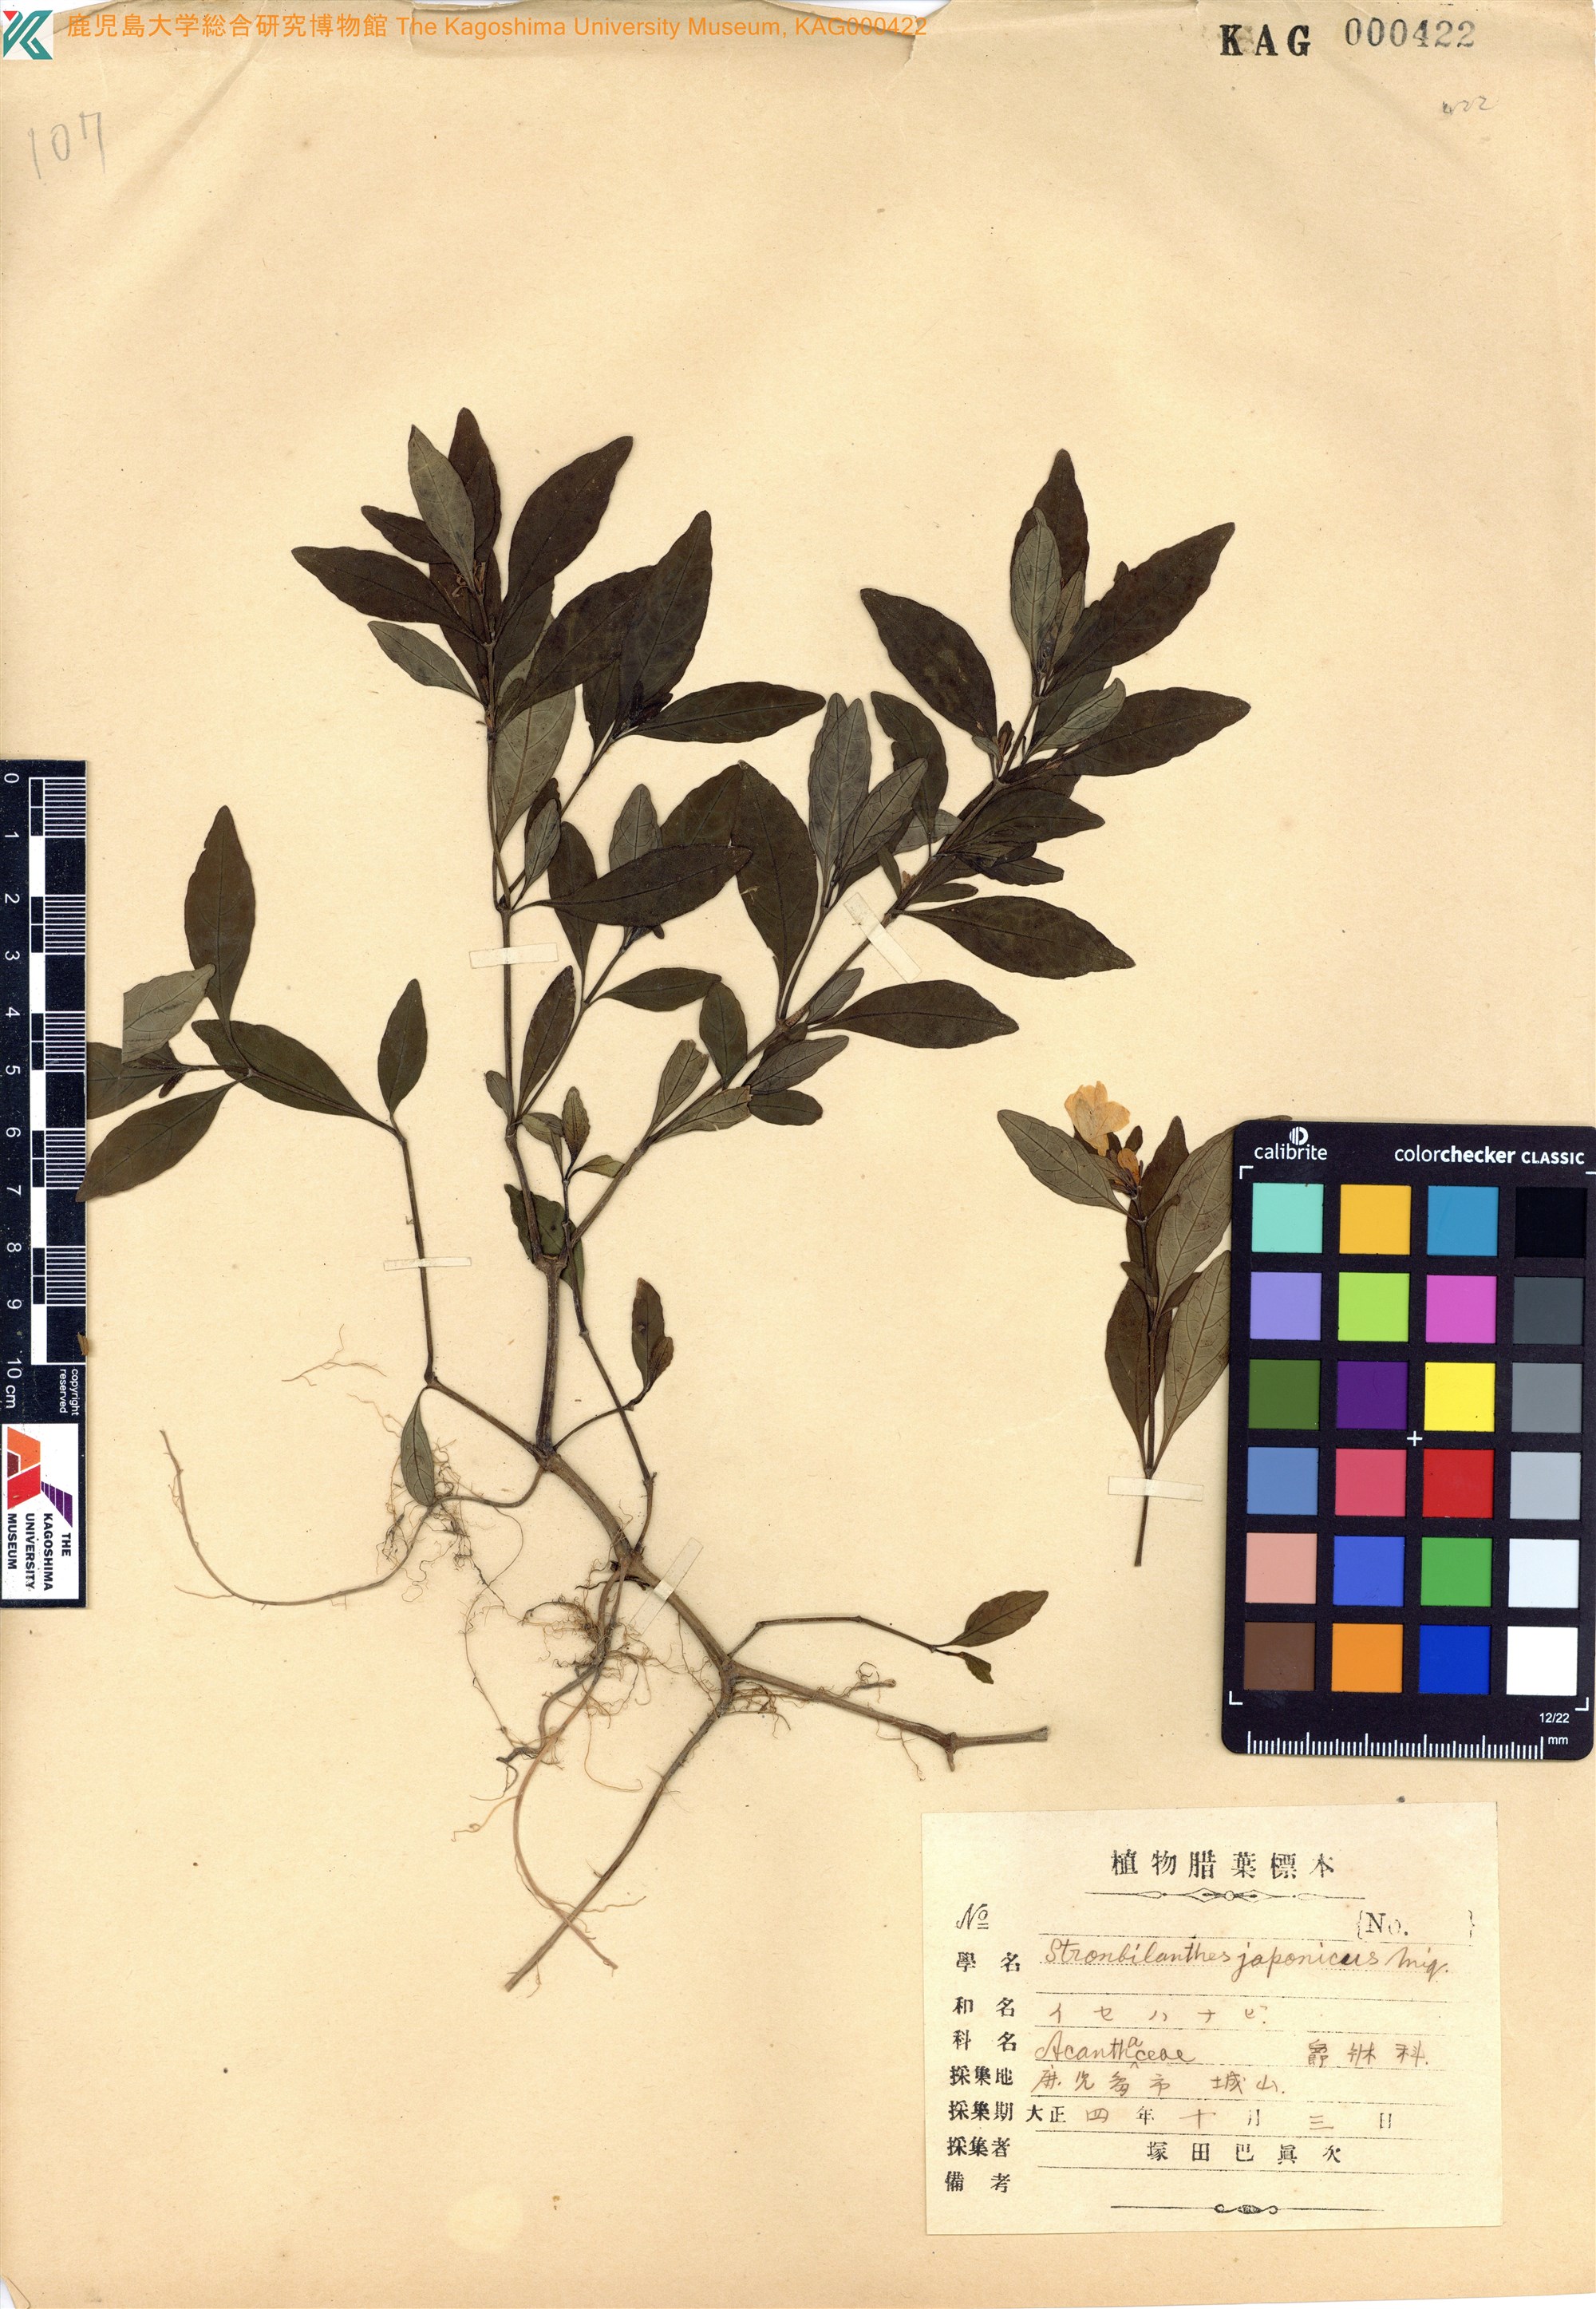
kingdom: Plantae
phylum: Tracheophyta
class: Magnoliopsida
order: Lamiales
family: Acanthaceae
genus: Strobilanthes
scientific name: Strobilanthes japonica
